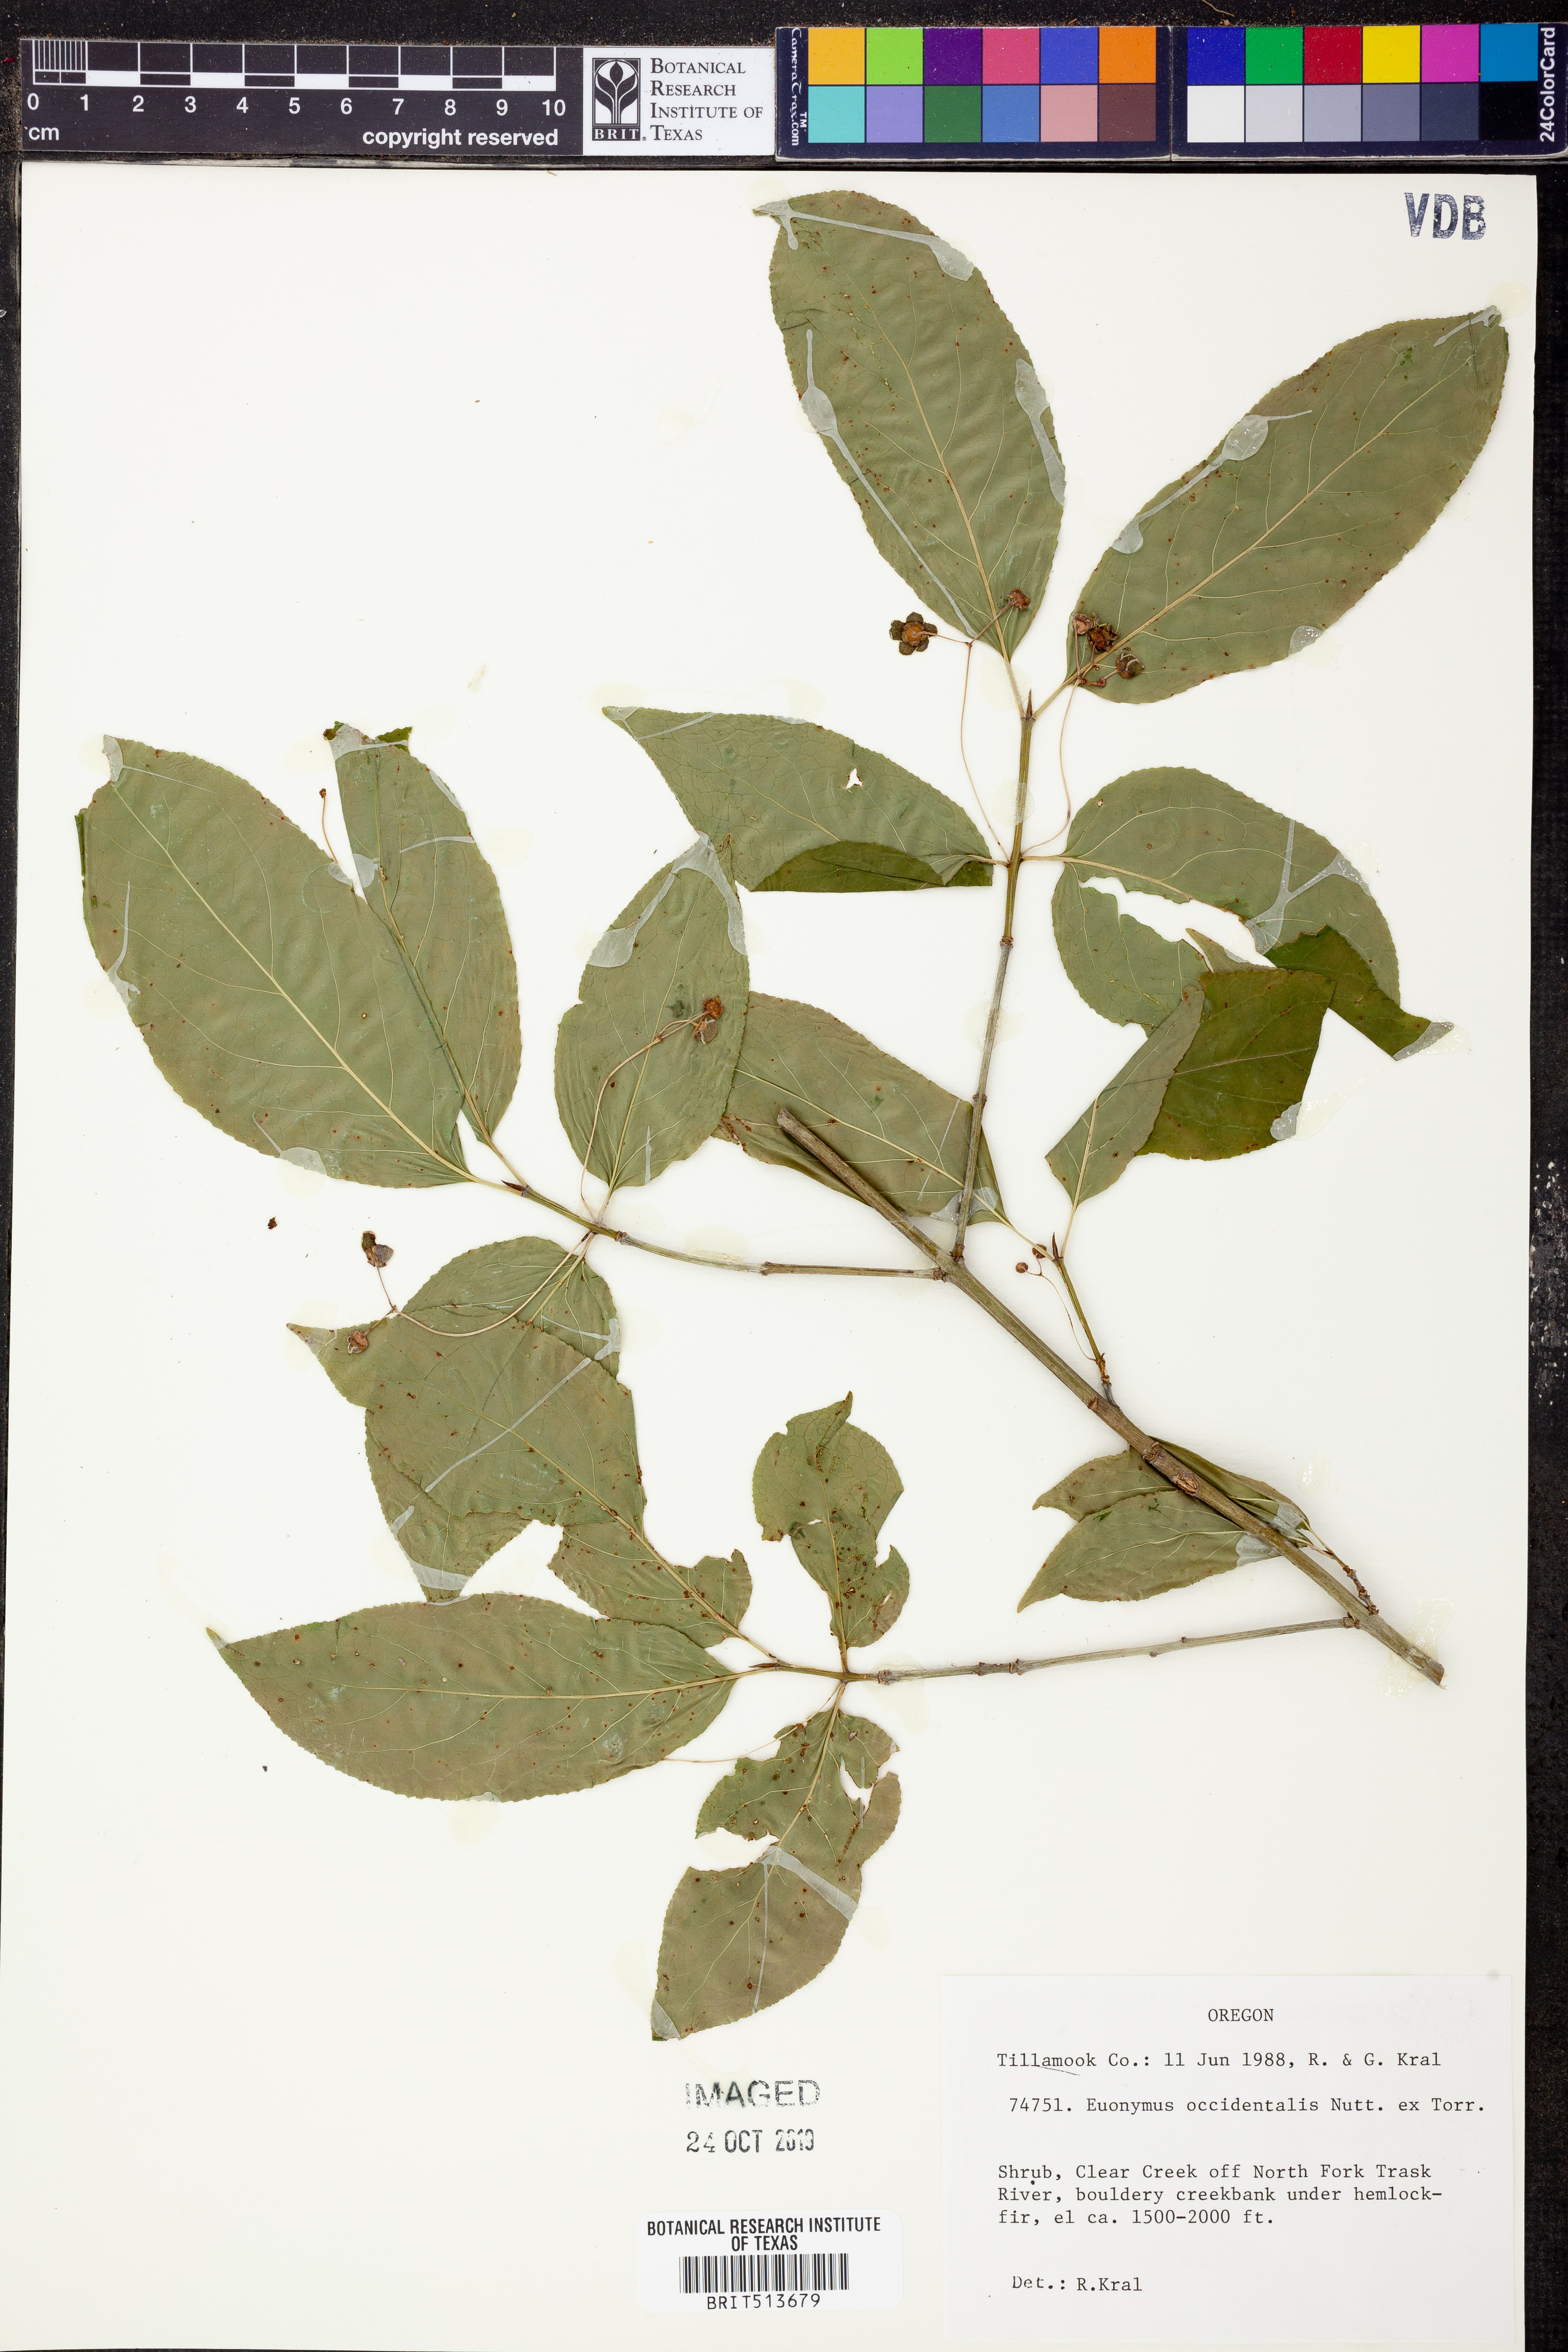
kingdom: Plantae
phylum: Tracheophyta
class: Magnoliopsida
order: Celastrales
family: Celastraceae
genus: Euonymus
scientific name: Euonymus occidentalis
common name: Western burningbush
